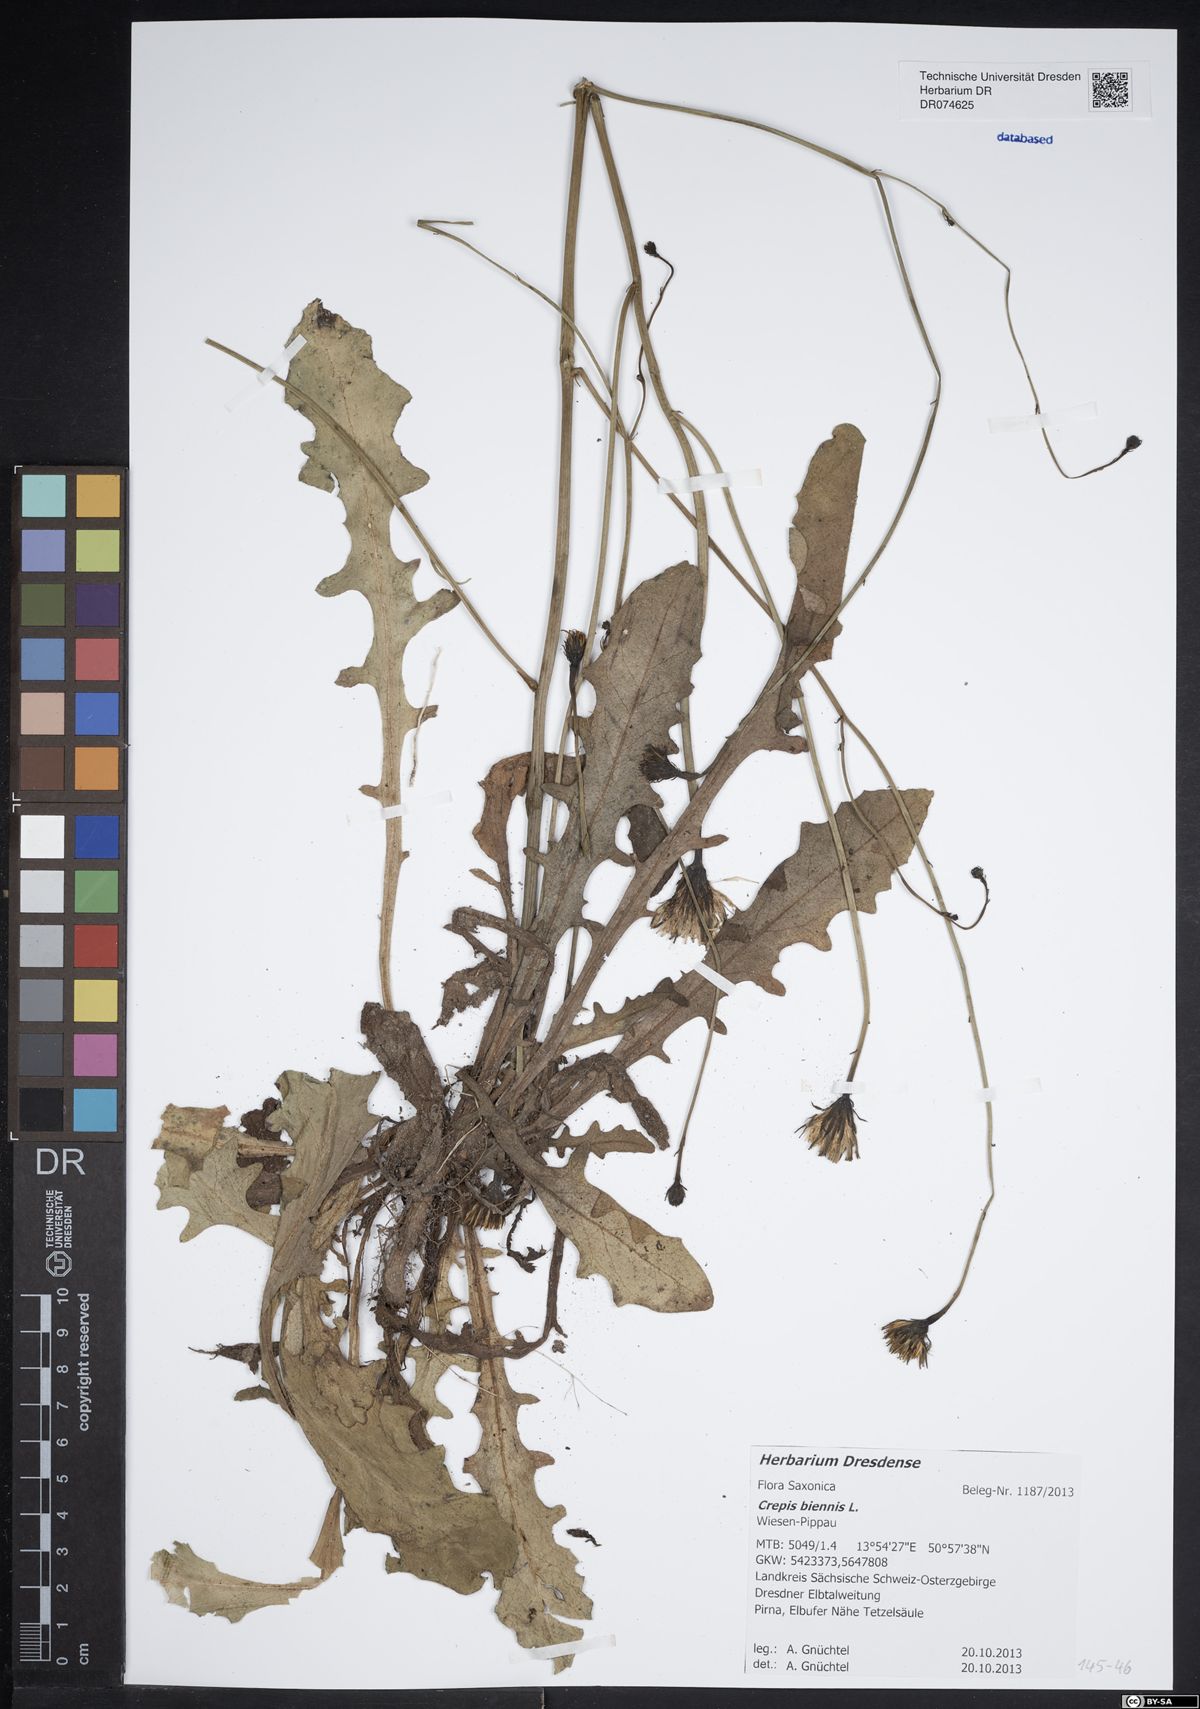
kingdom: Plantae
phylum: Tracheophyta
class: Magnoliopsida
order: Asterales
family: Asteraceae
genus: Crepis
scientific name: Crepis biennis
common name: Rough hawk's-beard
